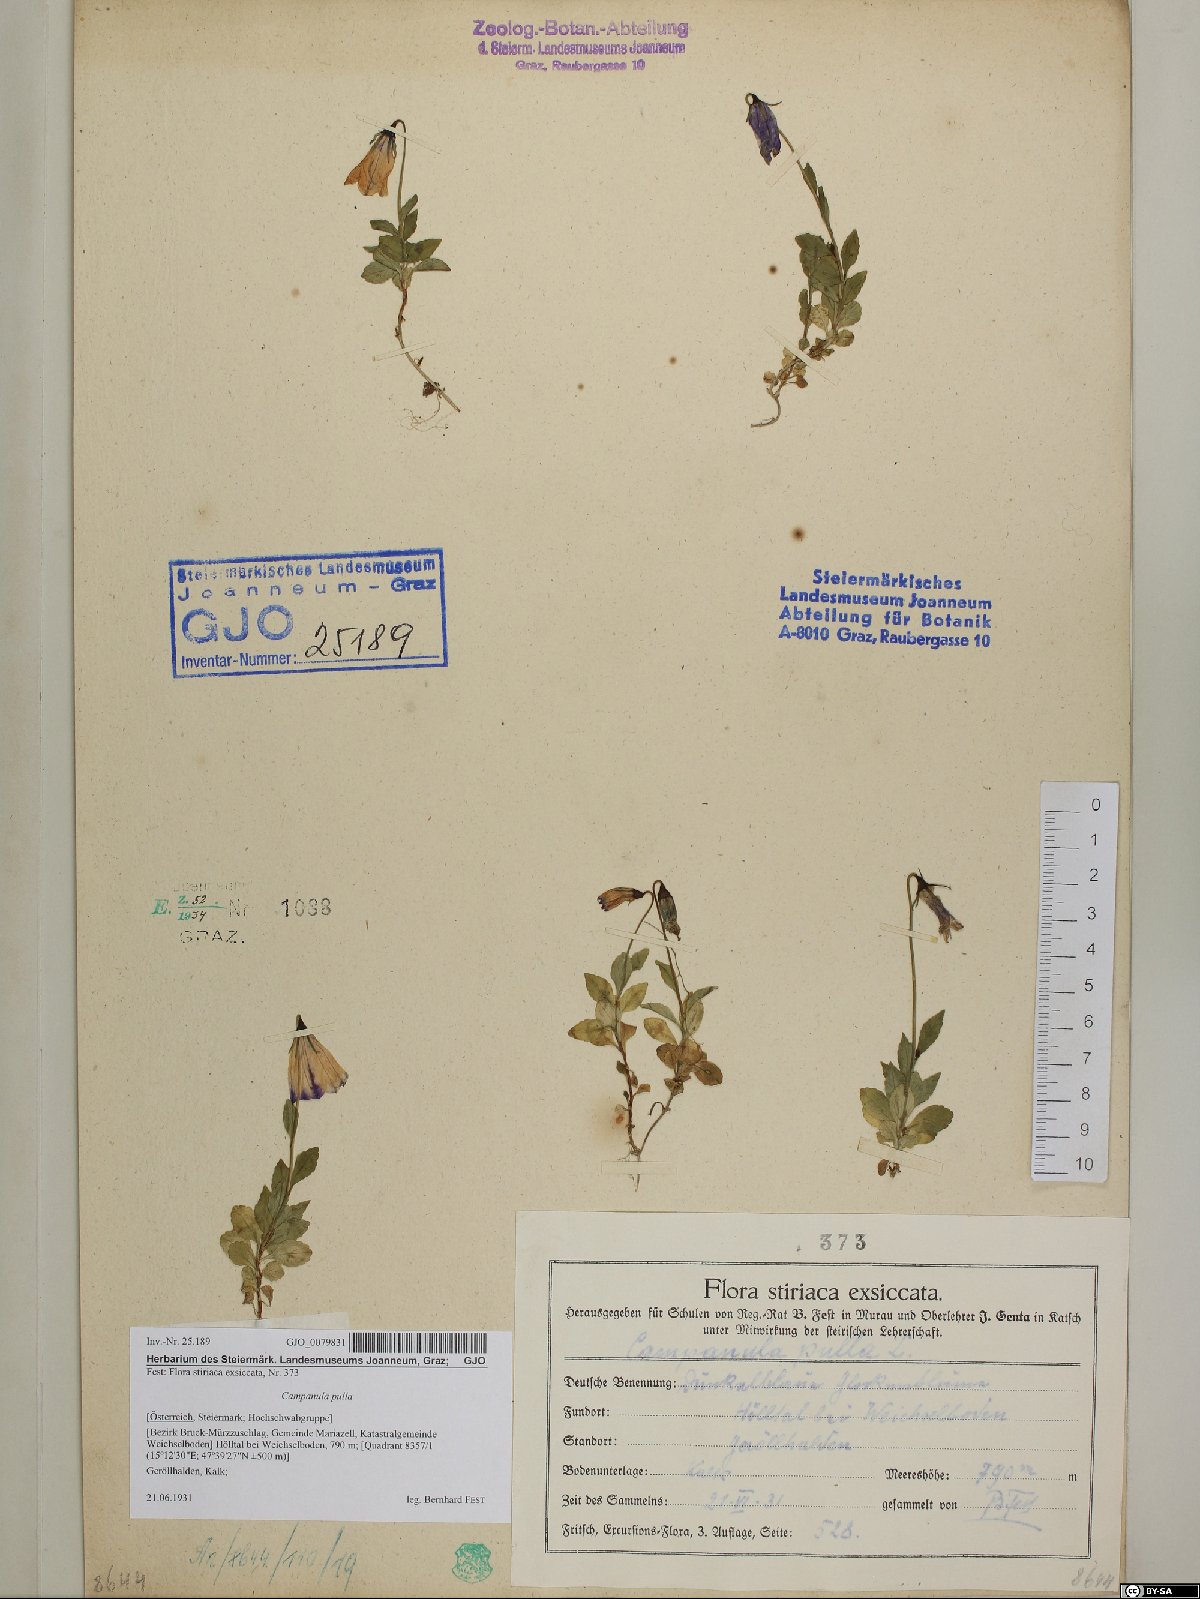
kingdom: Plantae
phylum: Tracheophyta
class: Magnoliopsida
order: Asterales
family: Campanulaceae
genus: Campanula
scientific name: Campanula pulla
